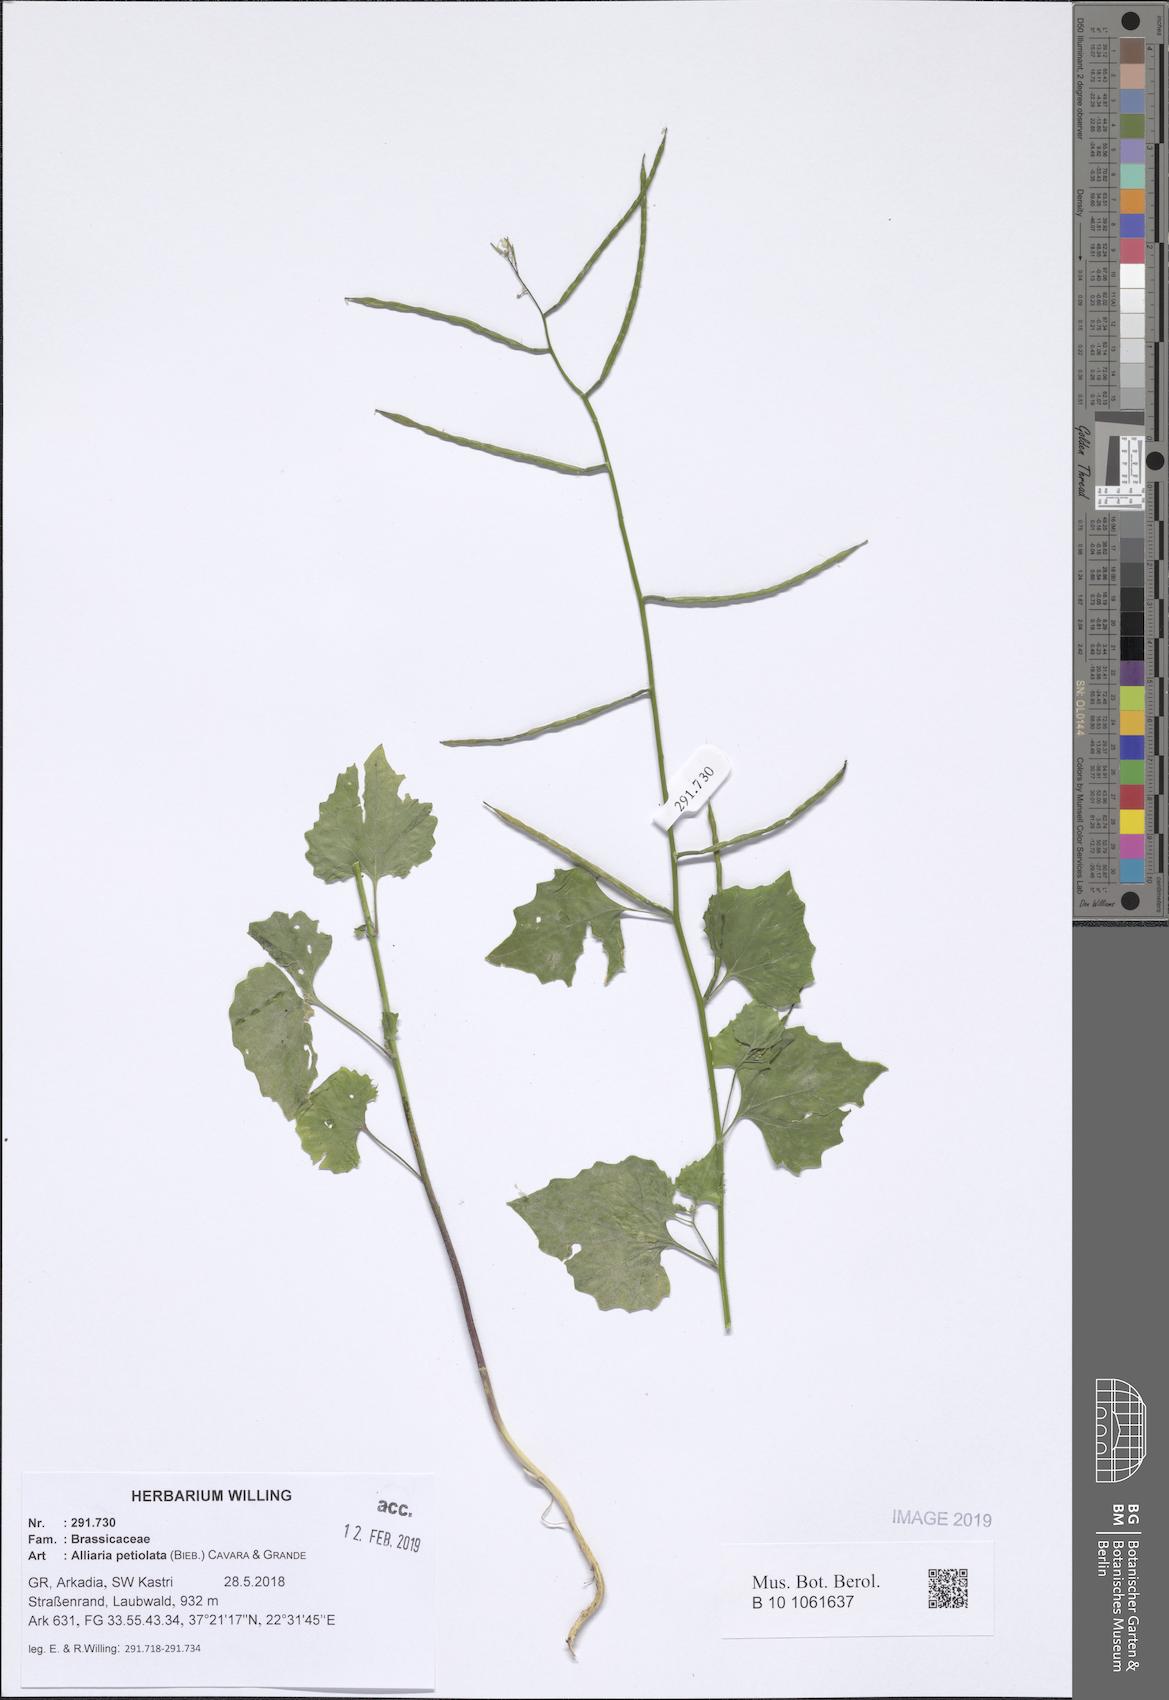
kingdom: Plantae
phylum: Tracheophyta
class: Magnoliopsida
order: Brassicales
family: Brassicaceae
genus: Alliaria
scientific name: Alliaria petiolata
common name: Garlic mustard
